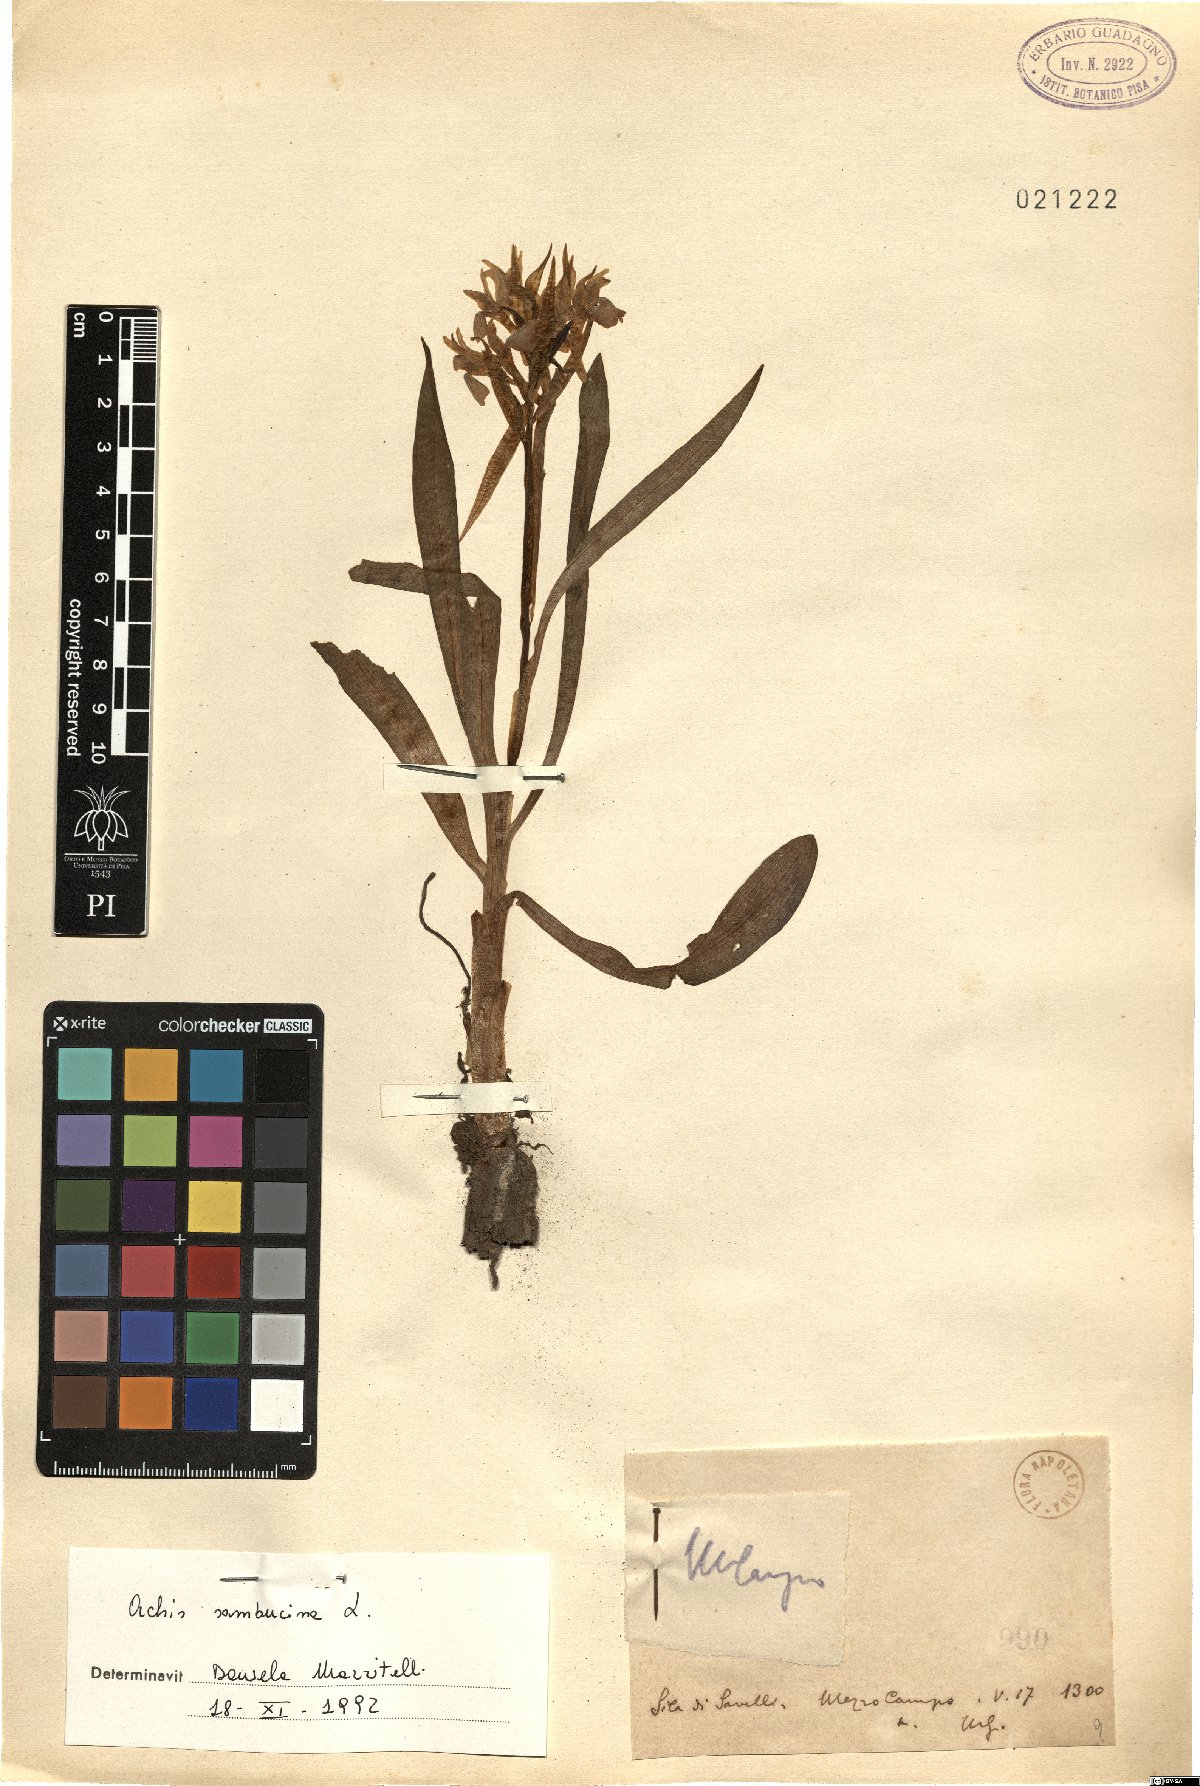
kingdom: Plantae
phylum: Tracheophyta
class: Liliopsida
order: Asparagales
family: Orchidaceae
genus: Dactylorhiza
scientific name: Dactylorhiza sambucina
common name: Elder-flowered orchid
